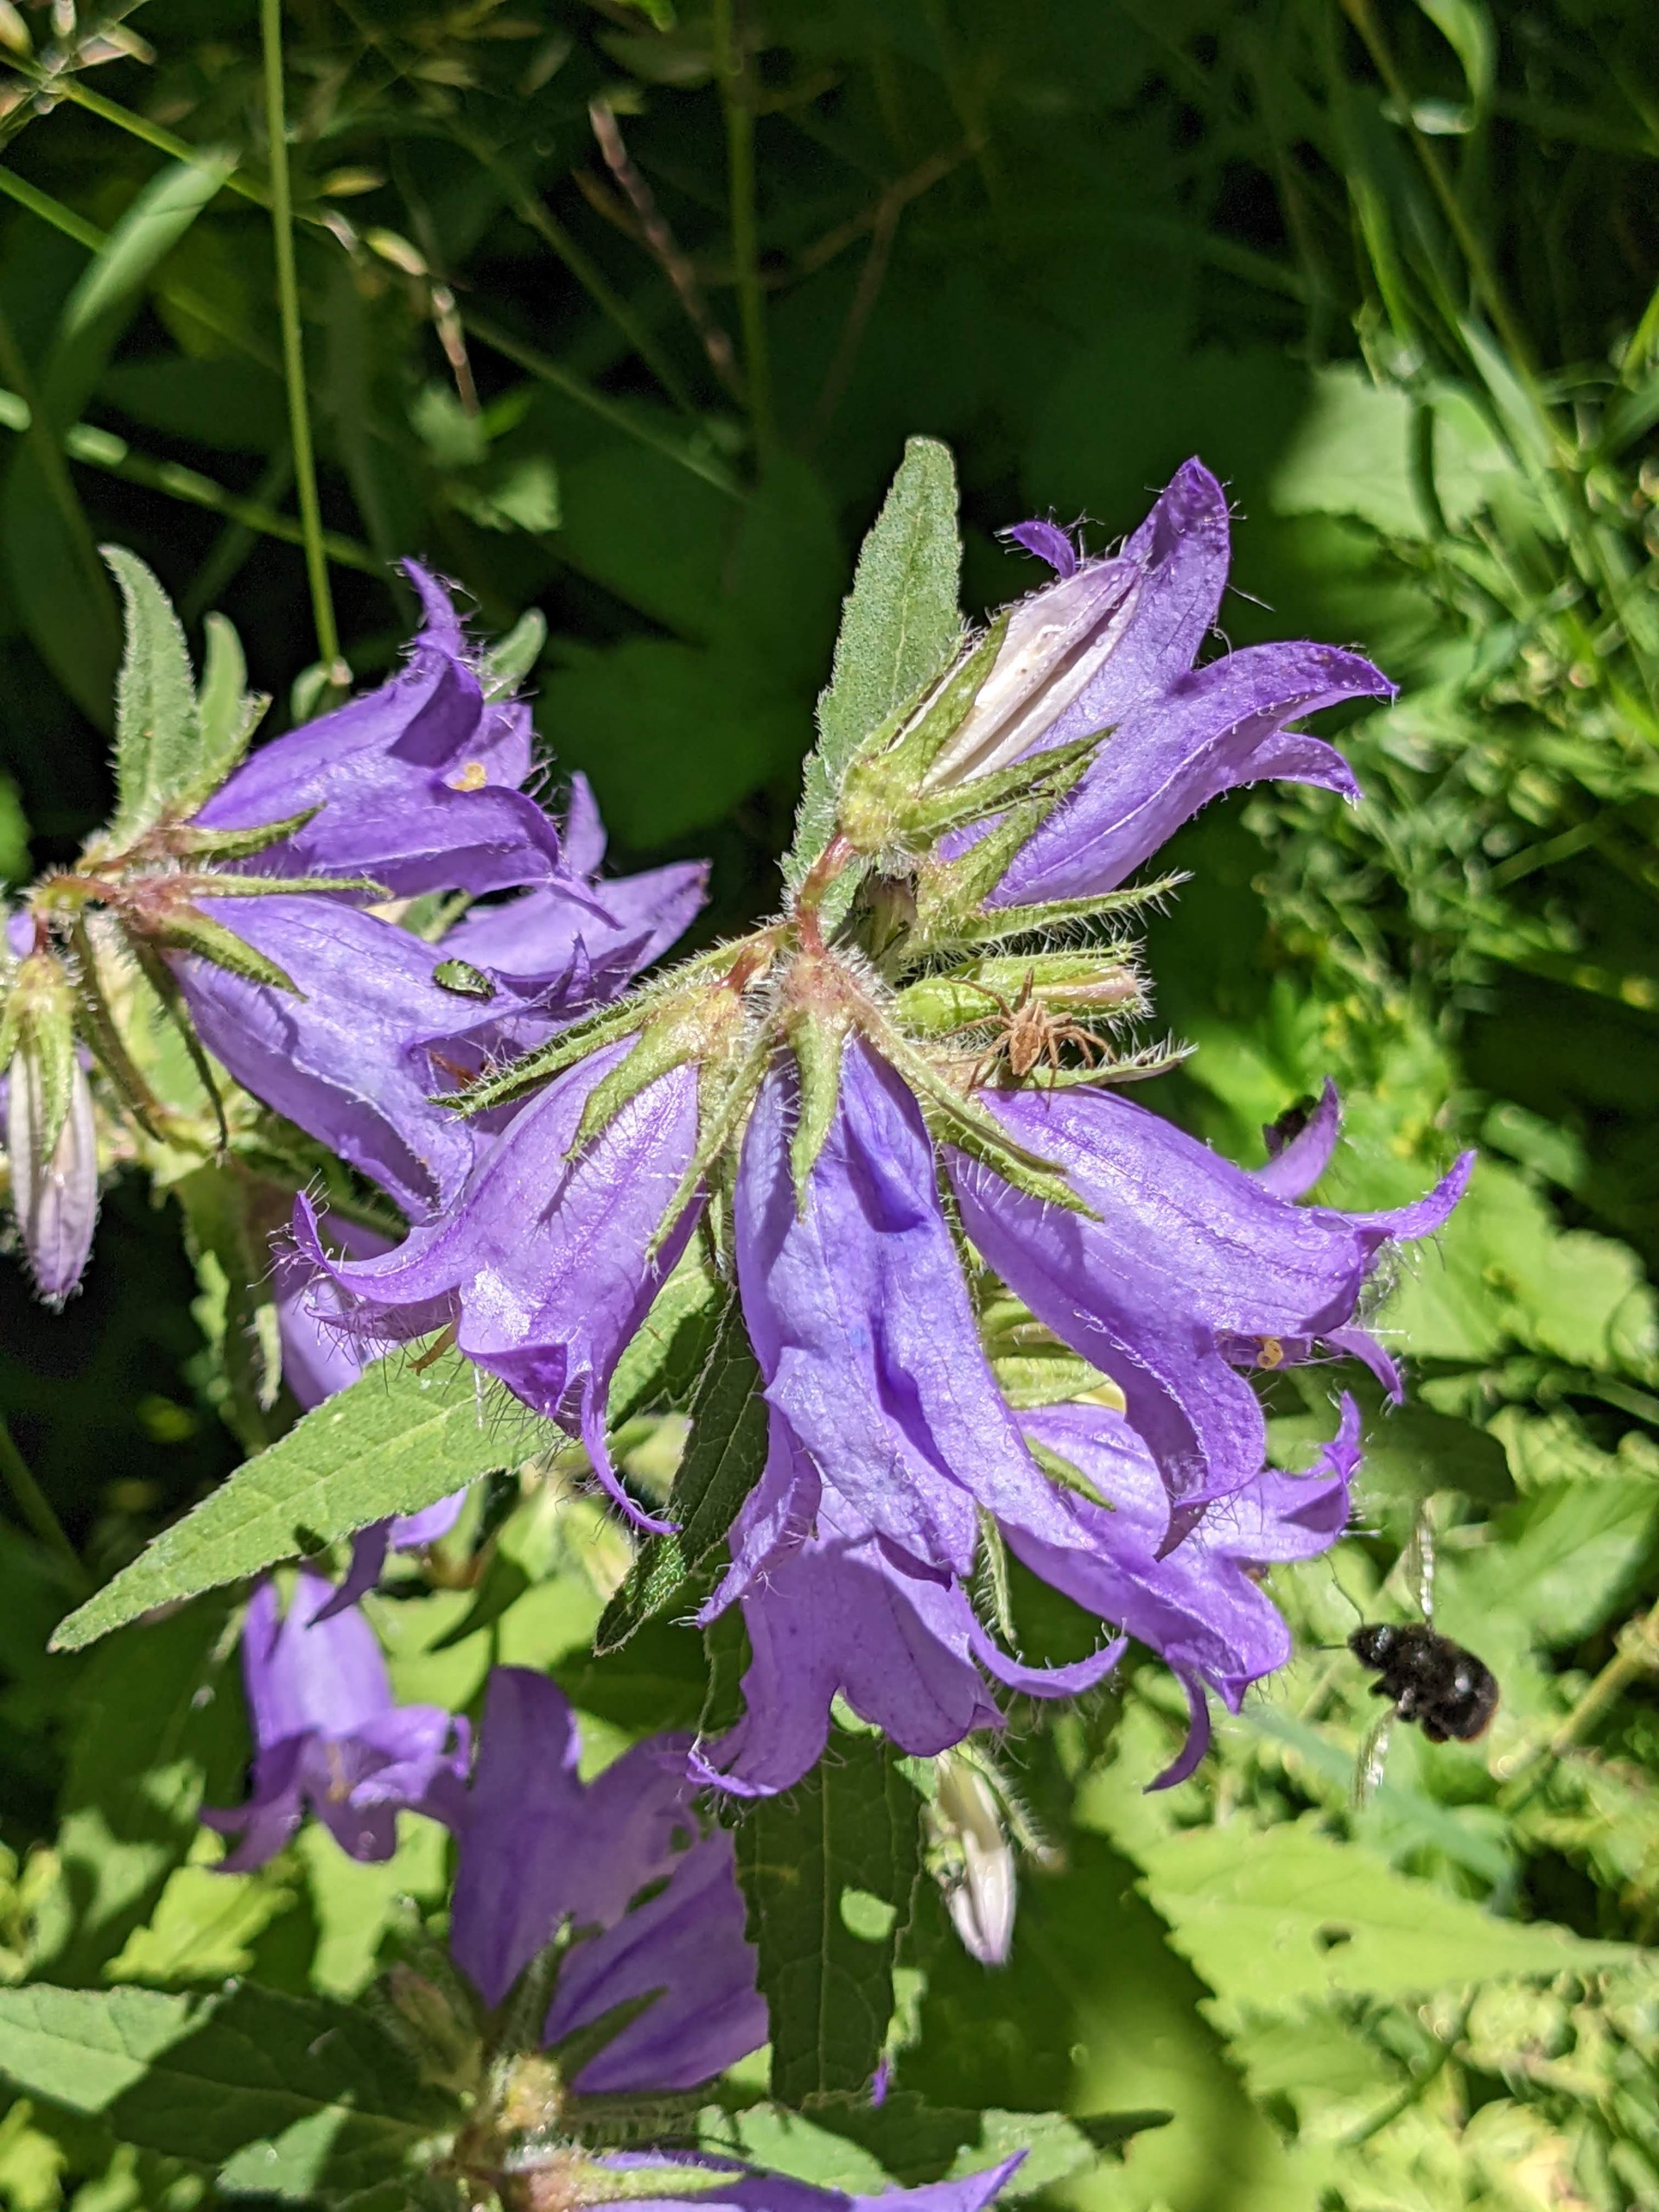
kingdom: Plantae
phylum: Tracheophyta
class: Magnoliopsida
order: Asterales
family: Campanulaceae
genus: Campanula
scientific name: Campanula trachelium
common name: Nælde-klokke
